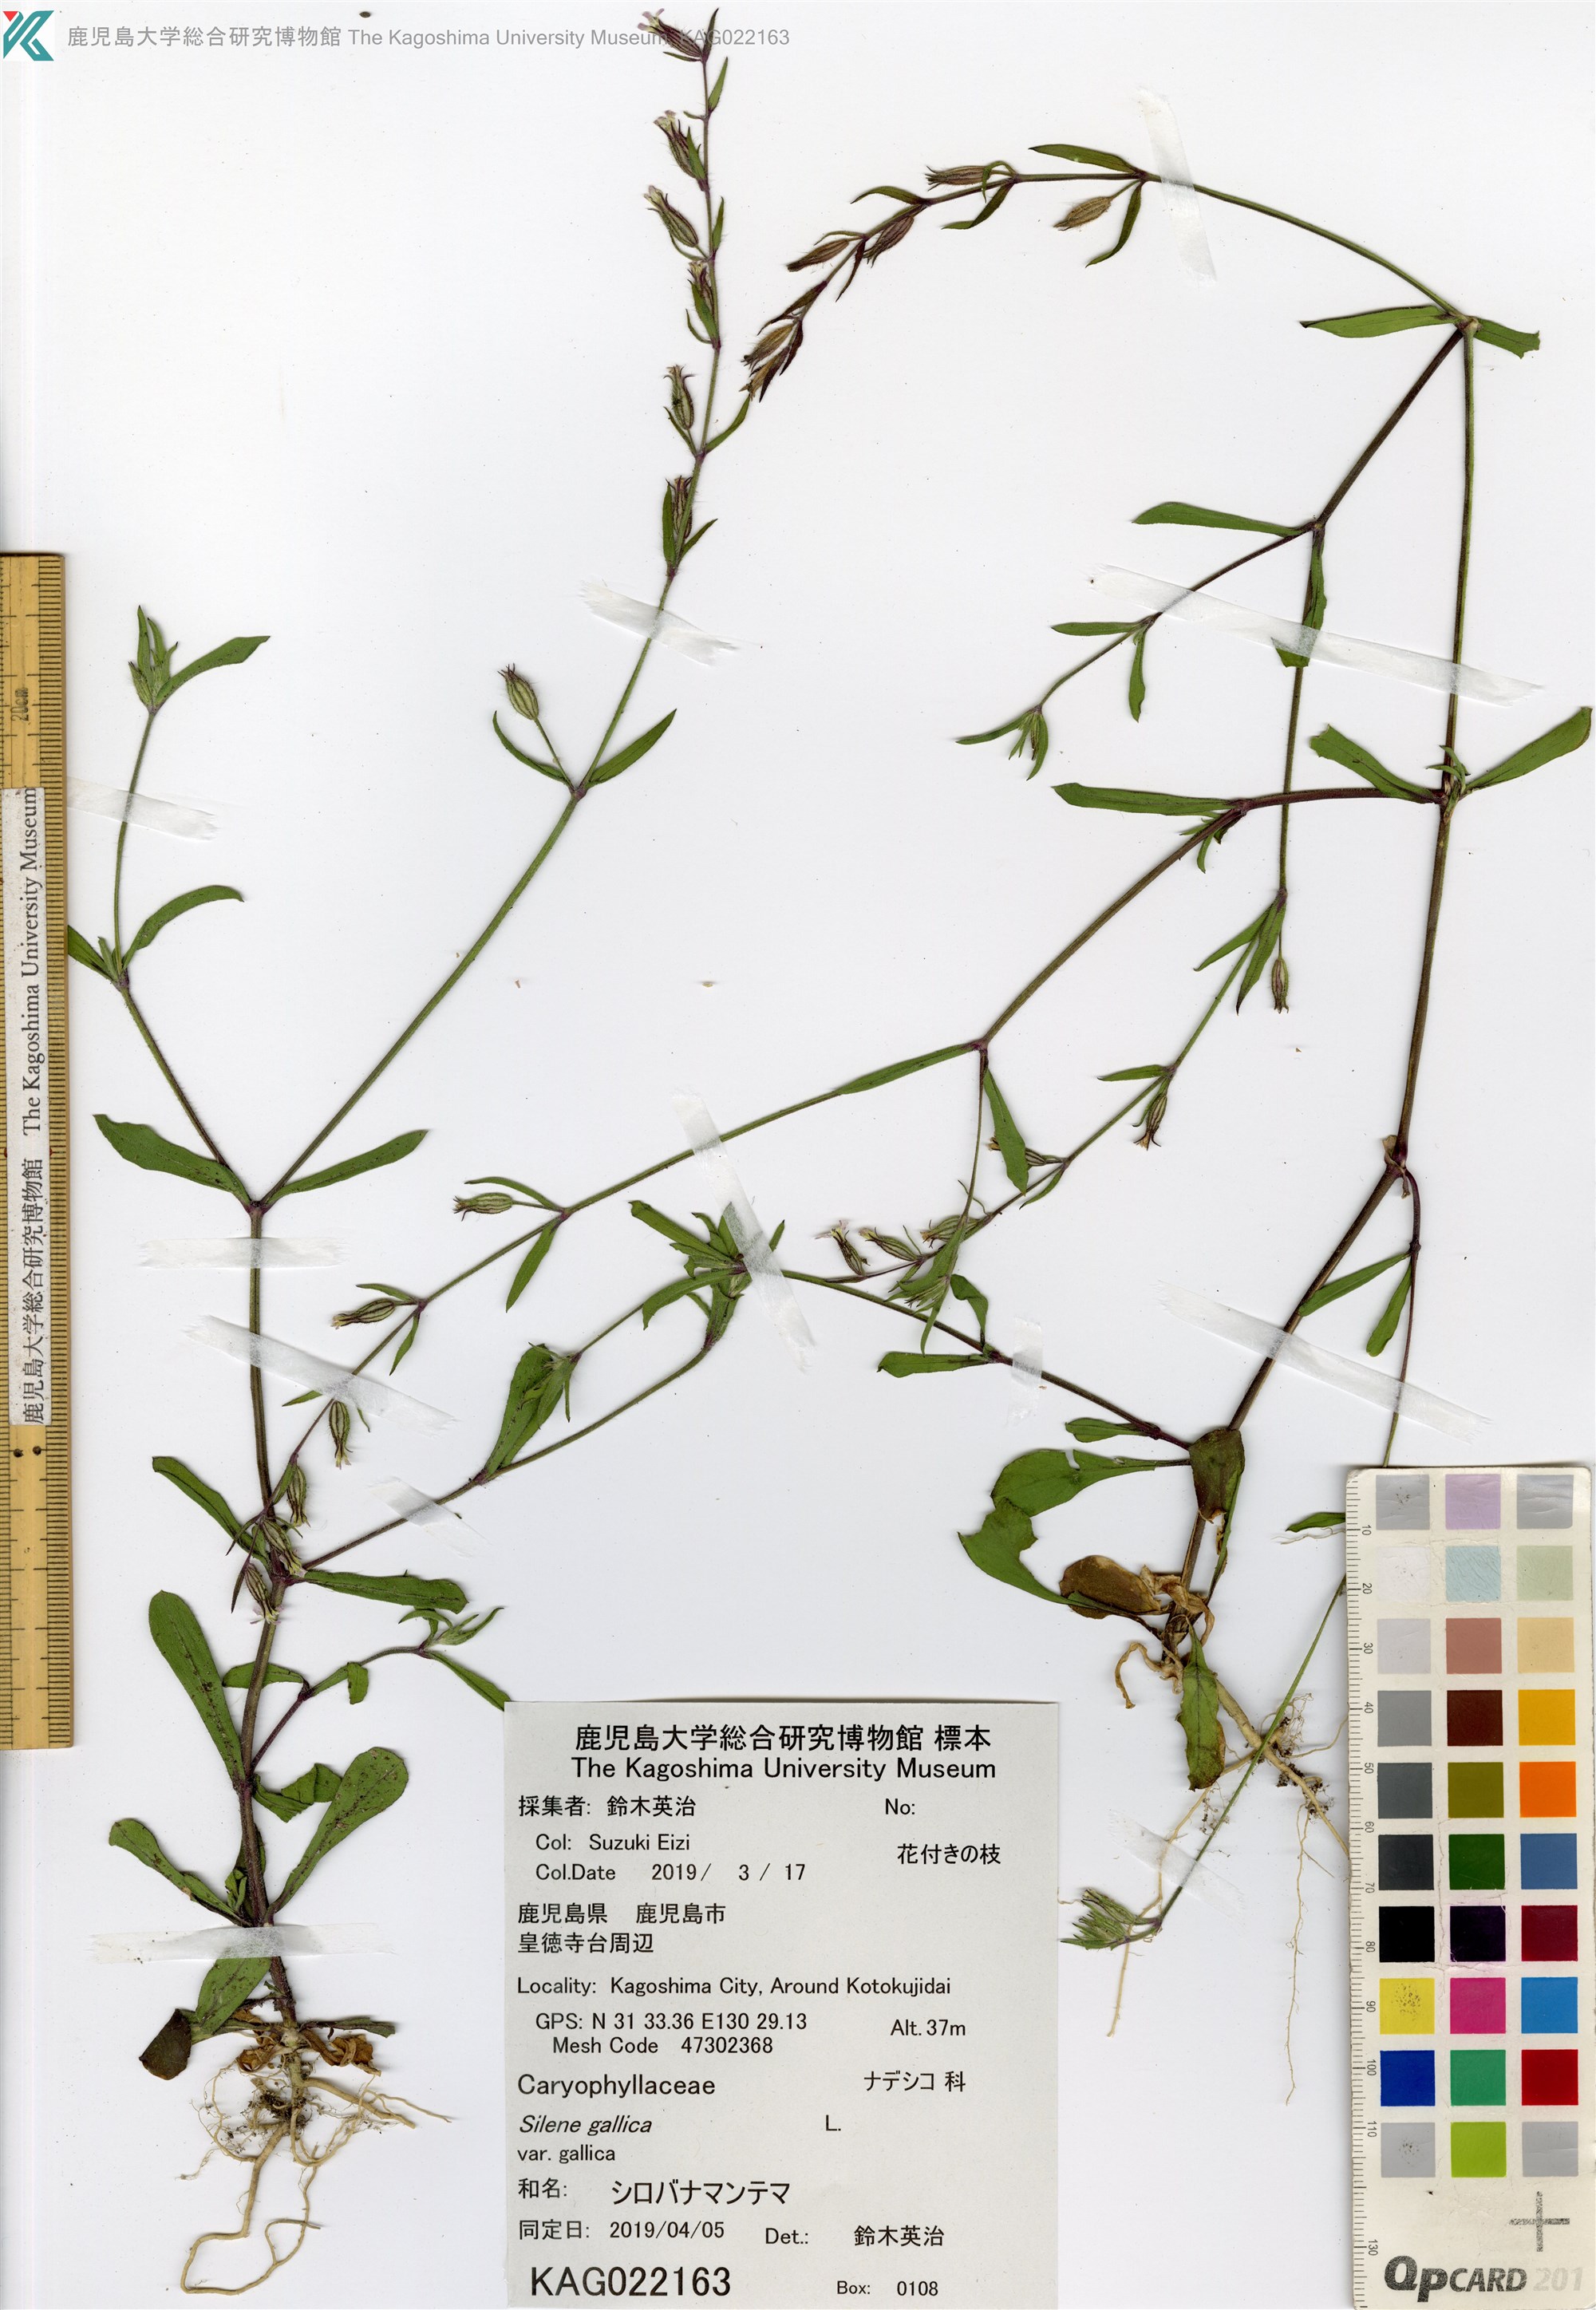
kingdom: Plantae
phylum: Tracheophyta
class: Magnoliopsida
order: Caryophyllales
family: Caryophyllaceae
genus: Silene
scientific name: Silene gallica
